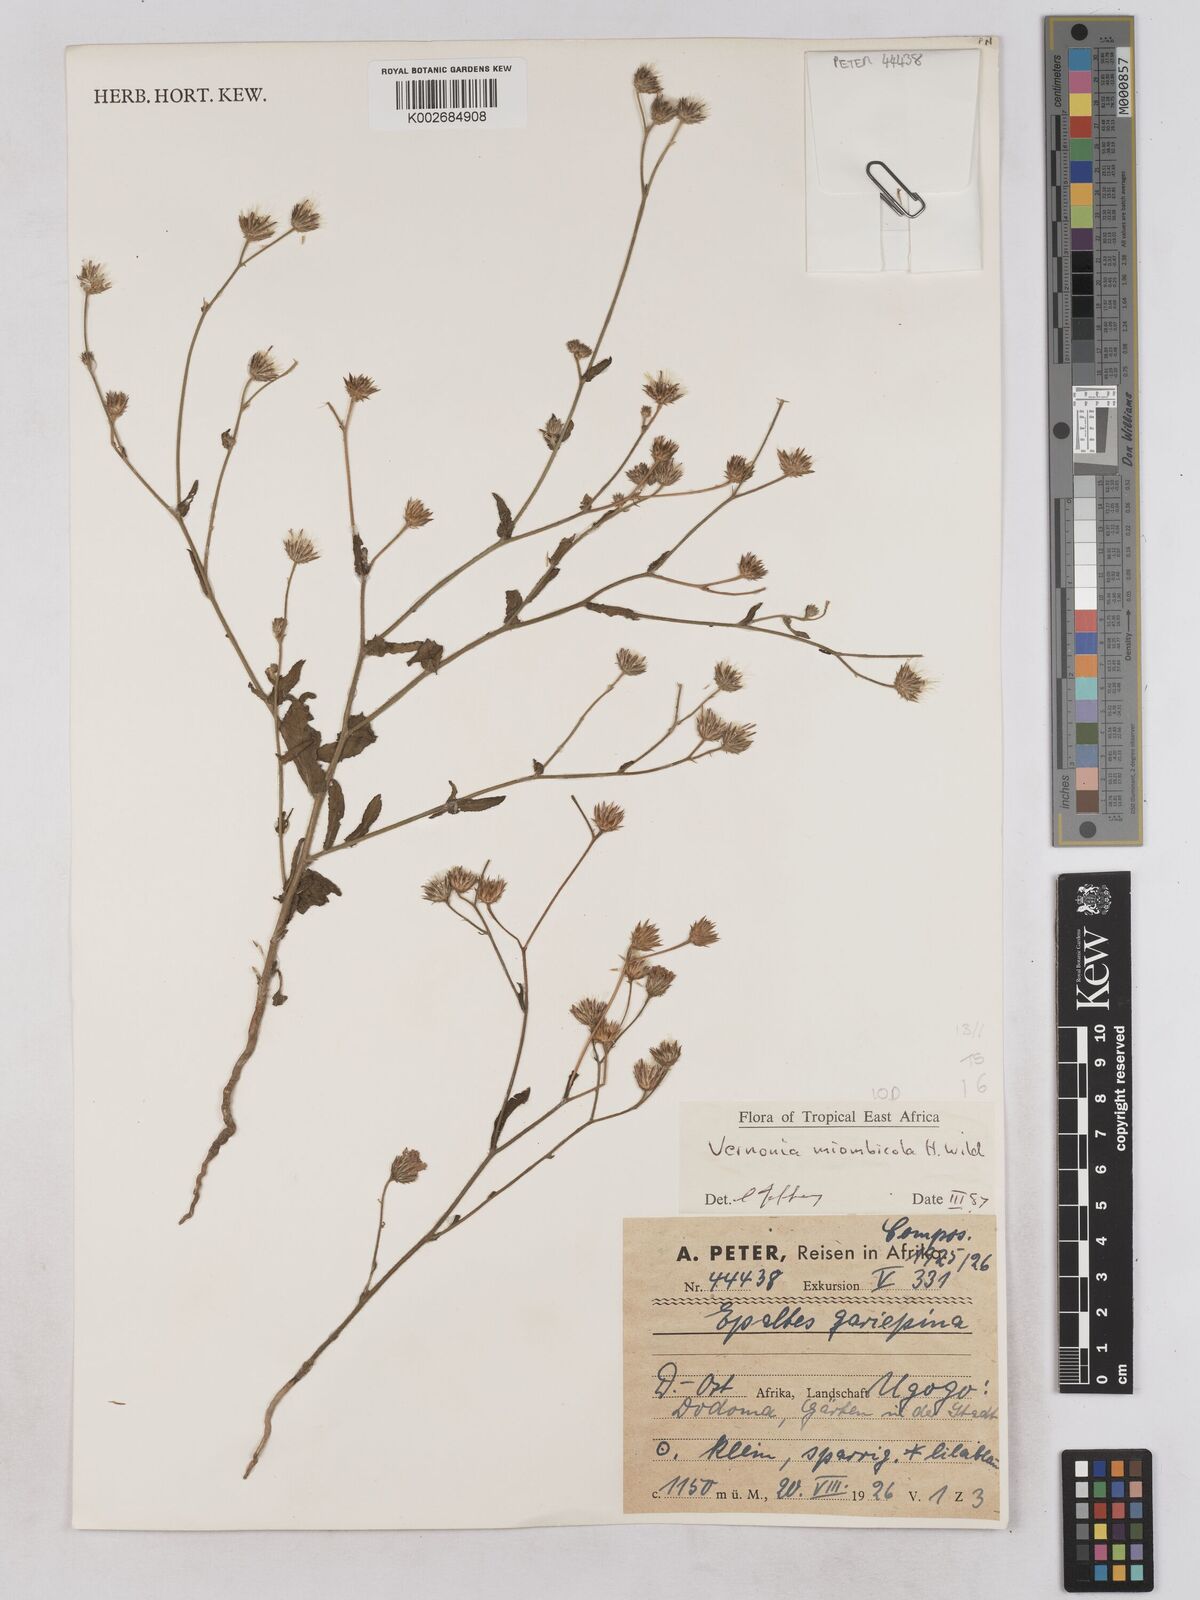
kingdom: Plantae
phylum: Tracheophyta
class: Magnoliopsida
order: Asterales
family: Asteraceae
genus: Vernonia
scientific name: Vernonia miombicola
